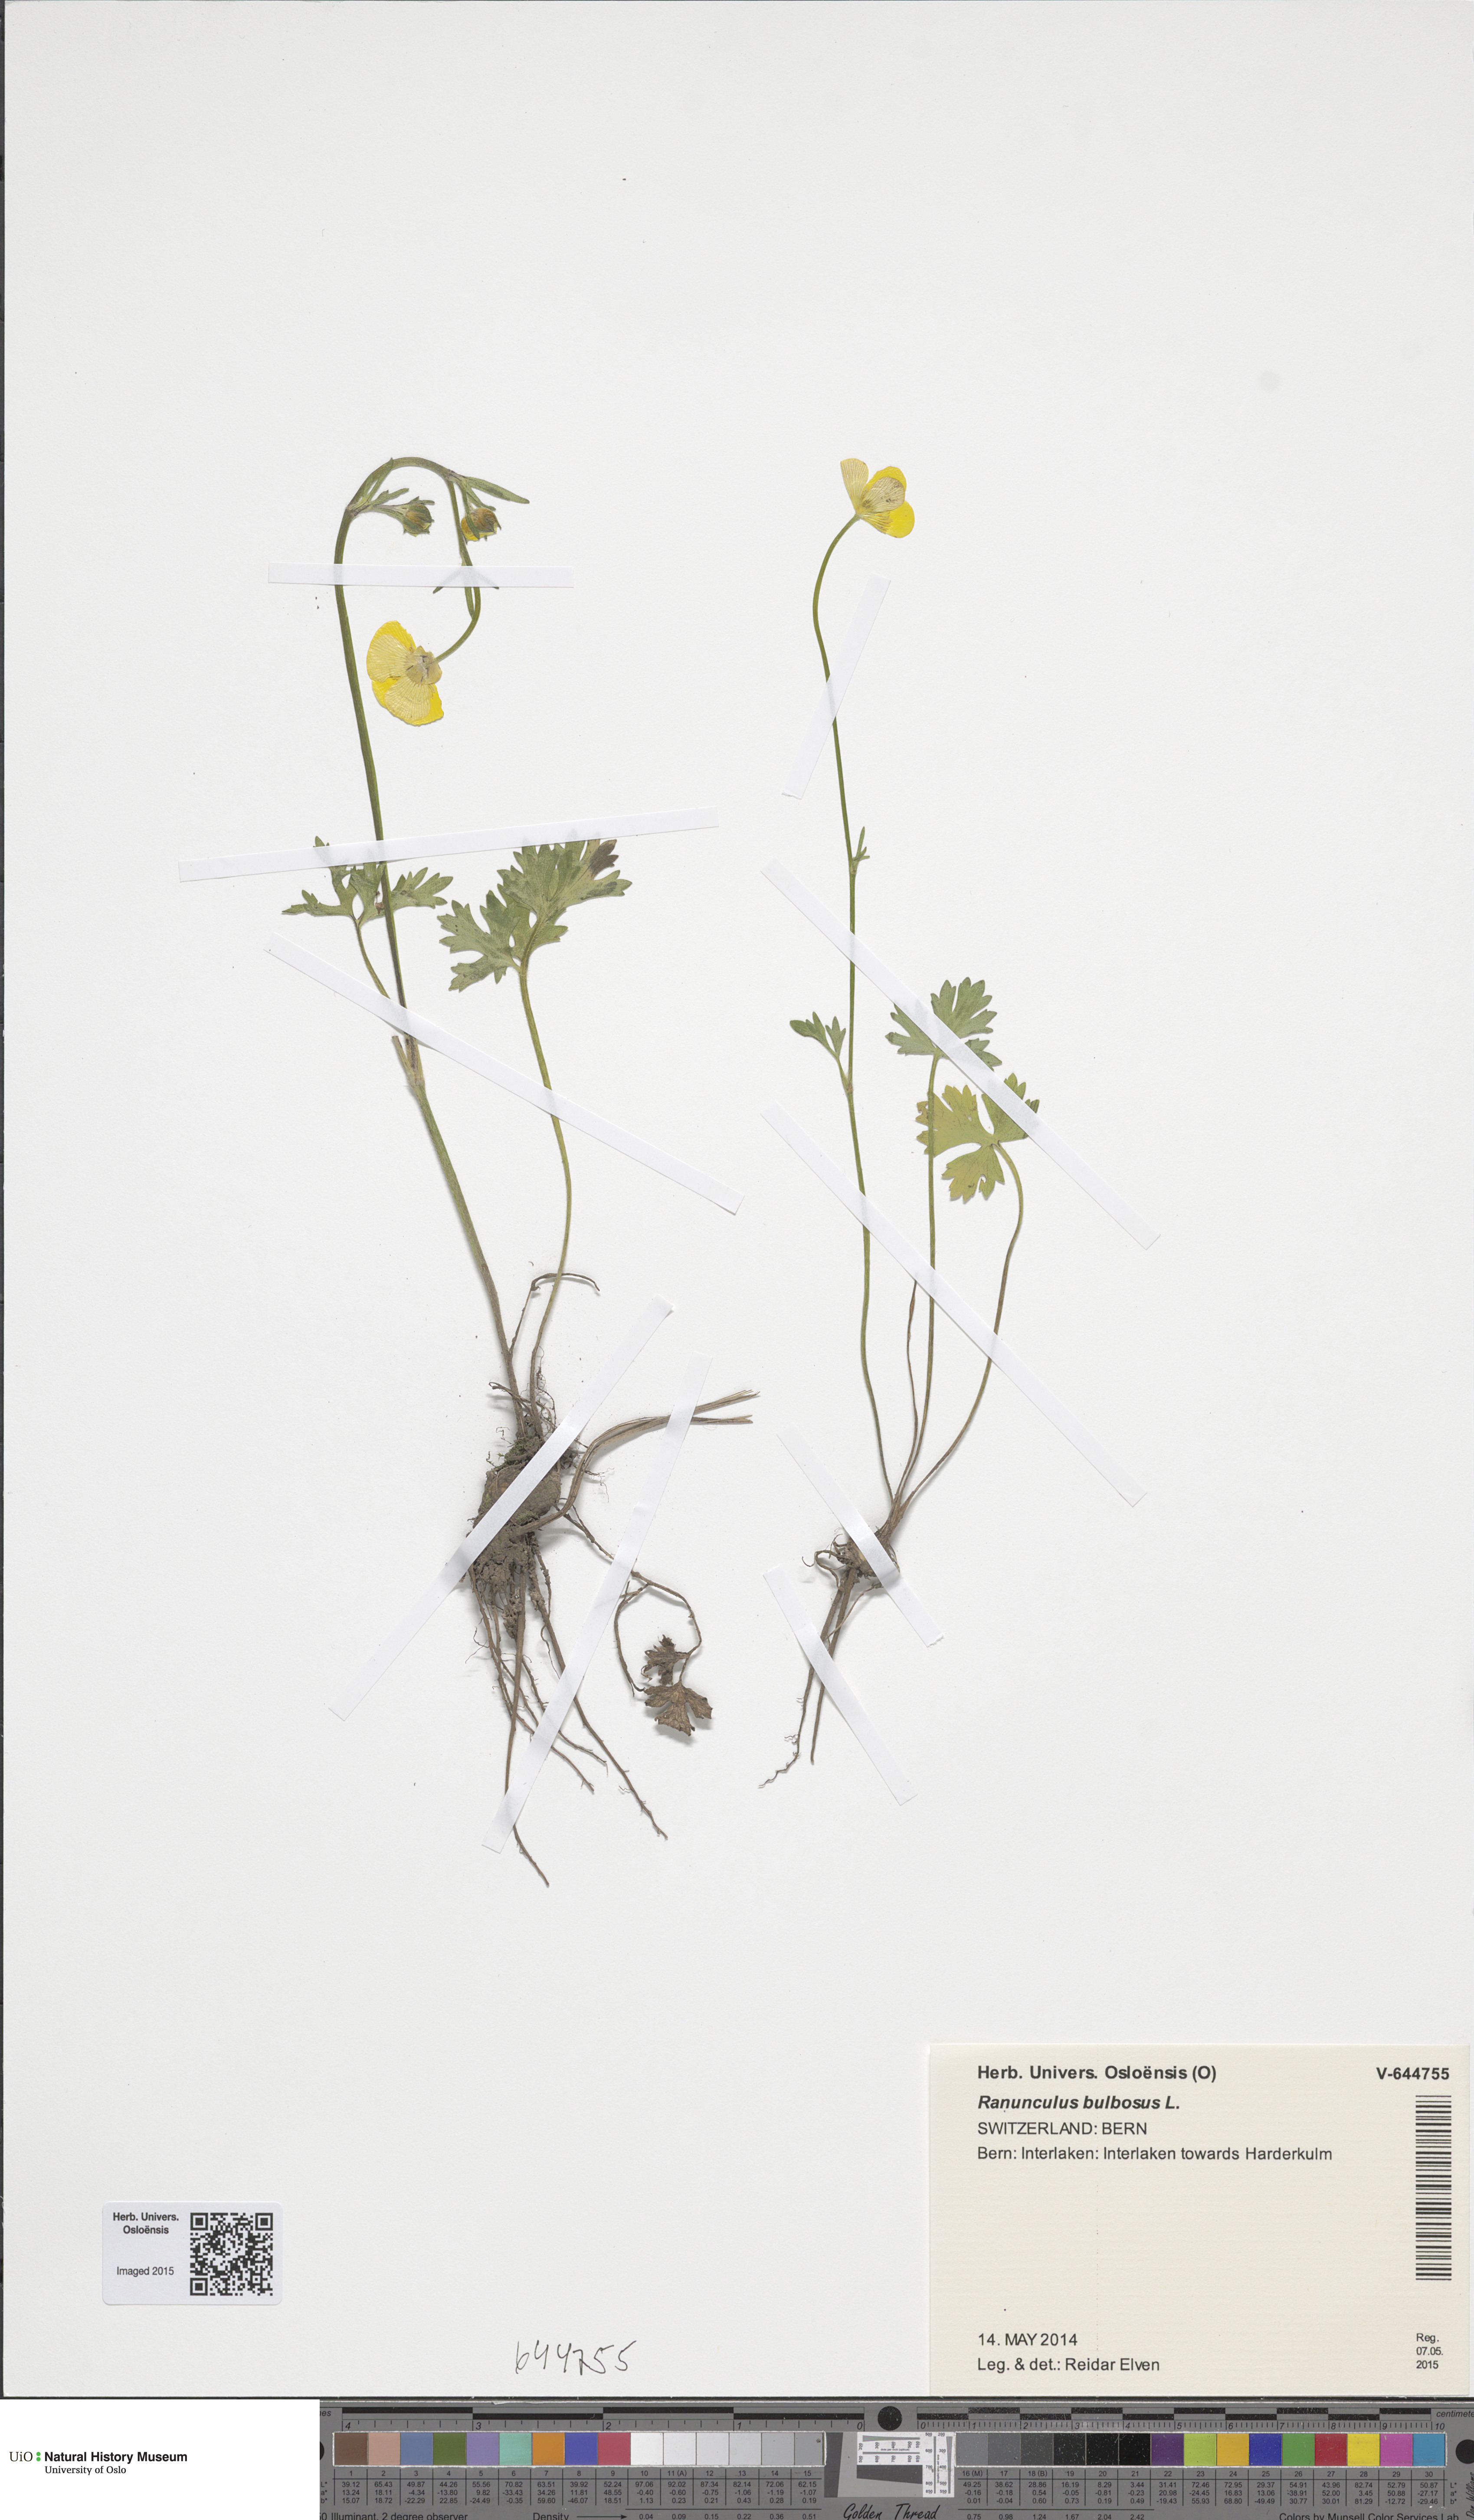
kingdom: Plantae
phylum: Tracheophyta
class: Magnoliopsida
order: Ranunculales
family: Ranunculaceae
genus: Ranunculus
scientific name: Ranunculus bulbosus
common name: Bulbous buttercup
